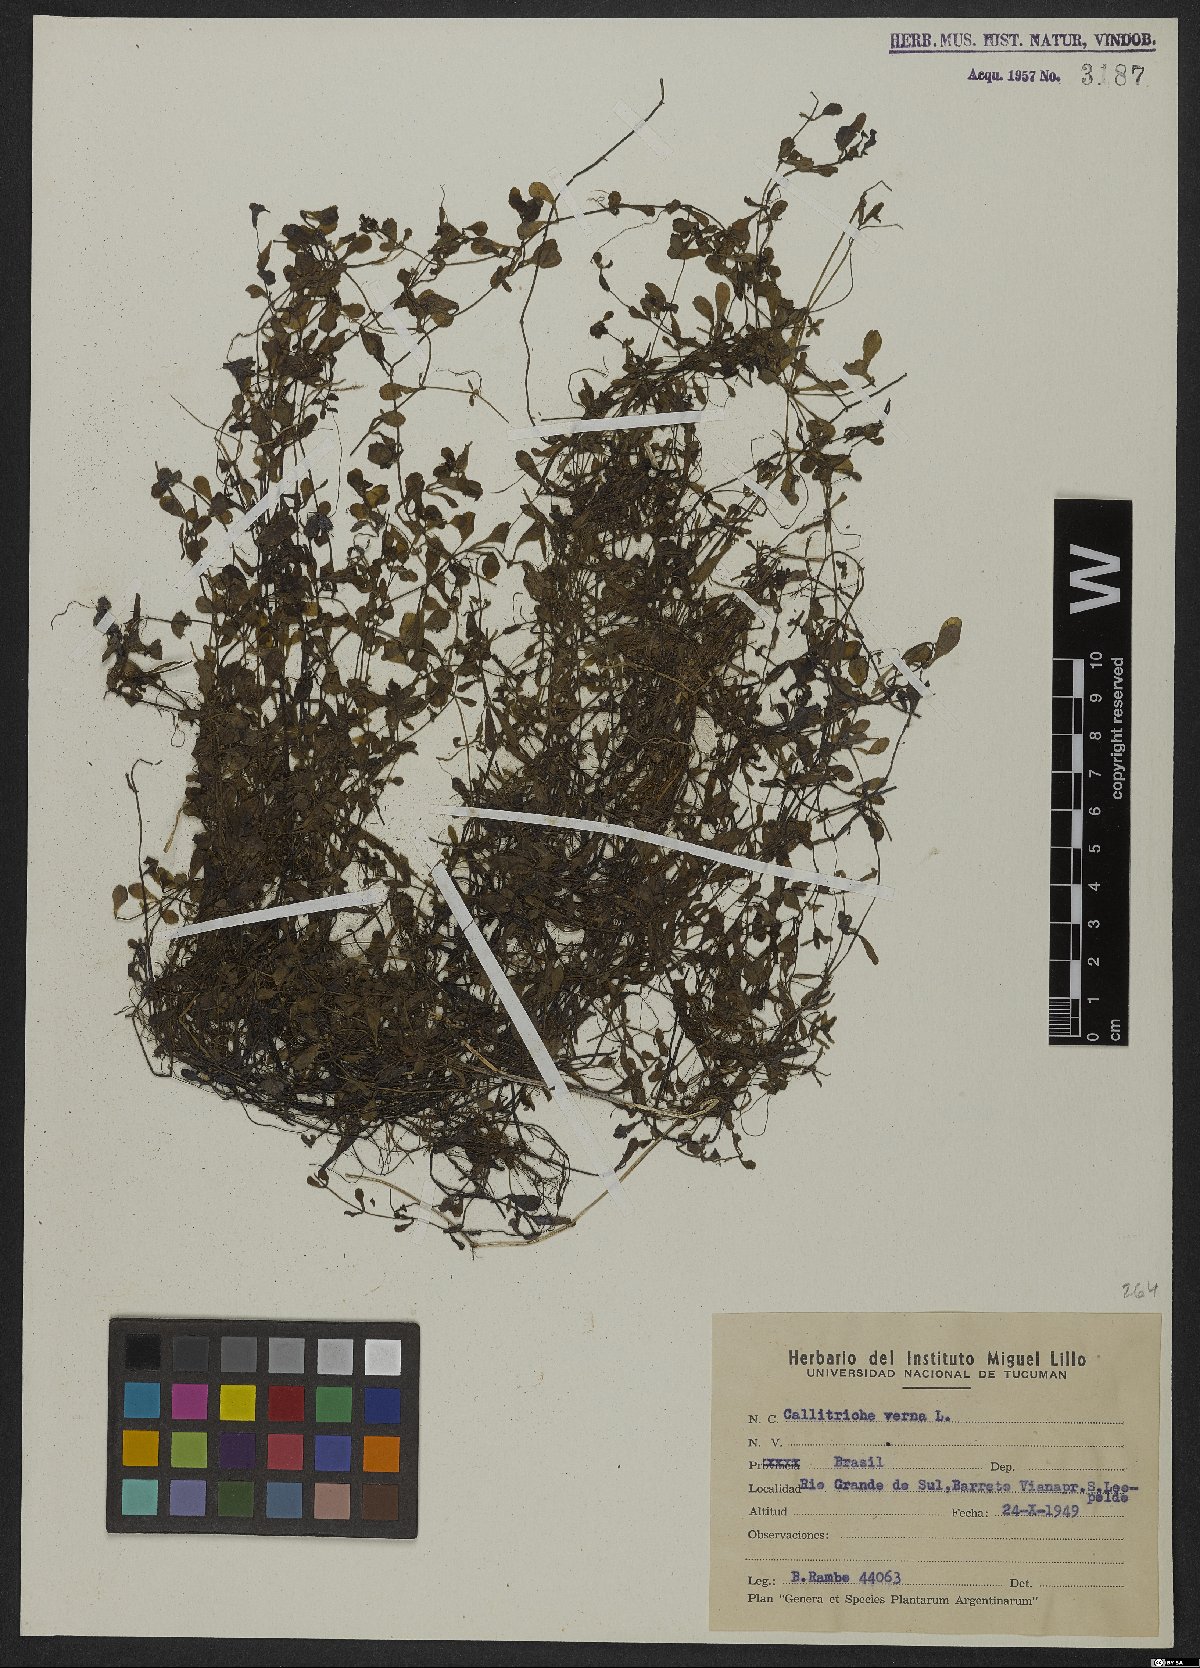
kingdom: Plantae
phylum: Tracheophyta
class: Magnoliopsida
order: Lamiales
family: Plantaginaceae
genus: Callitriche
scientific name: Callitriche palustris
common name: Spring water-starwort
